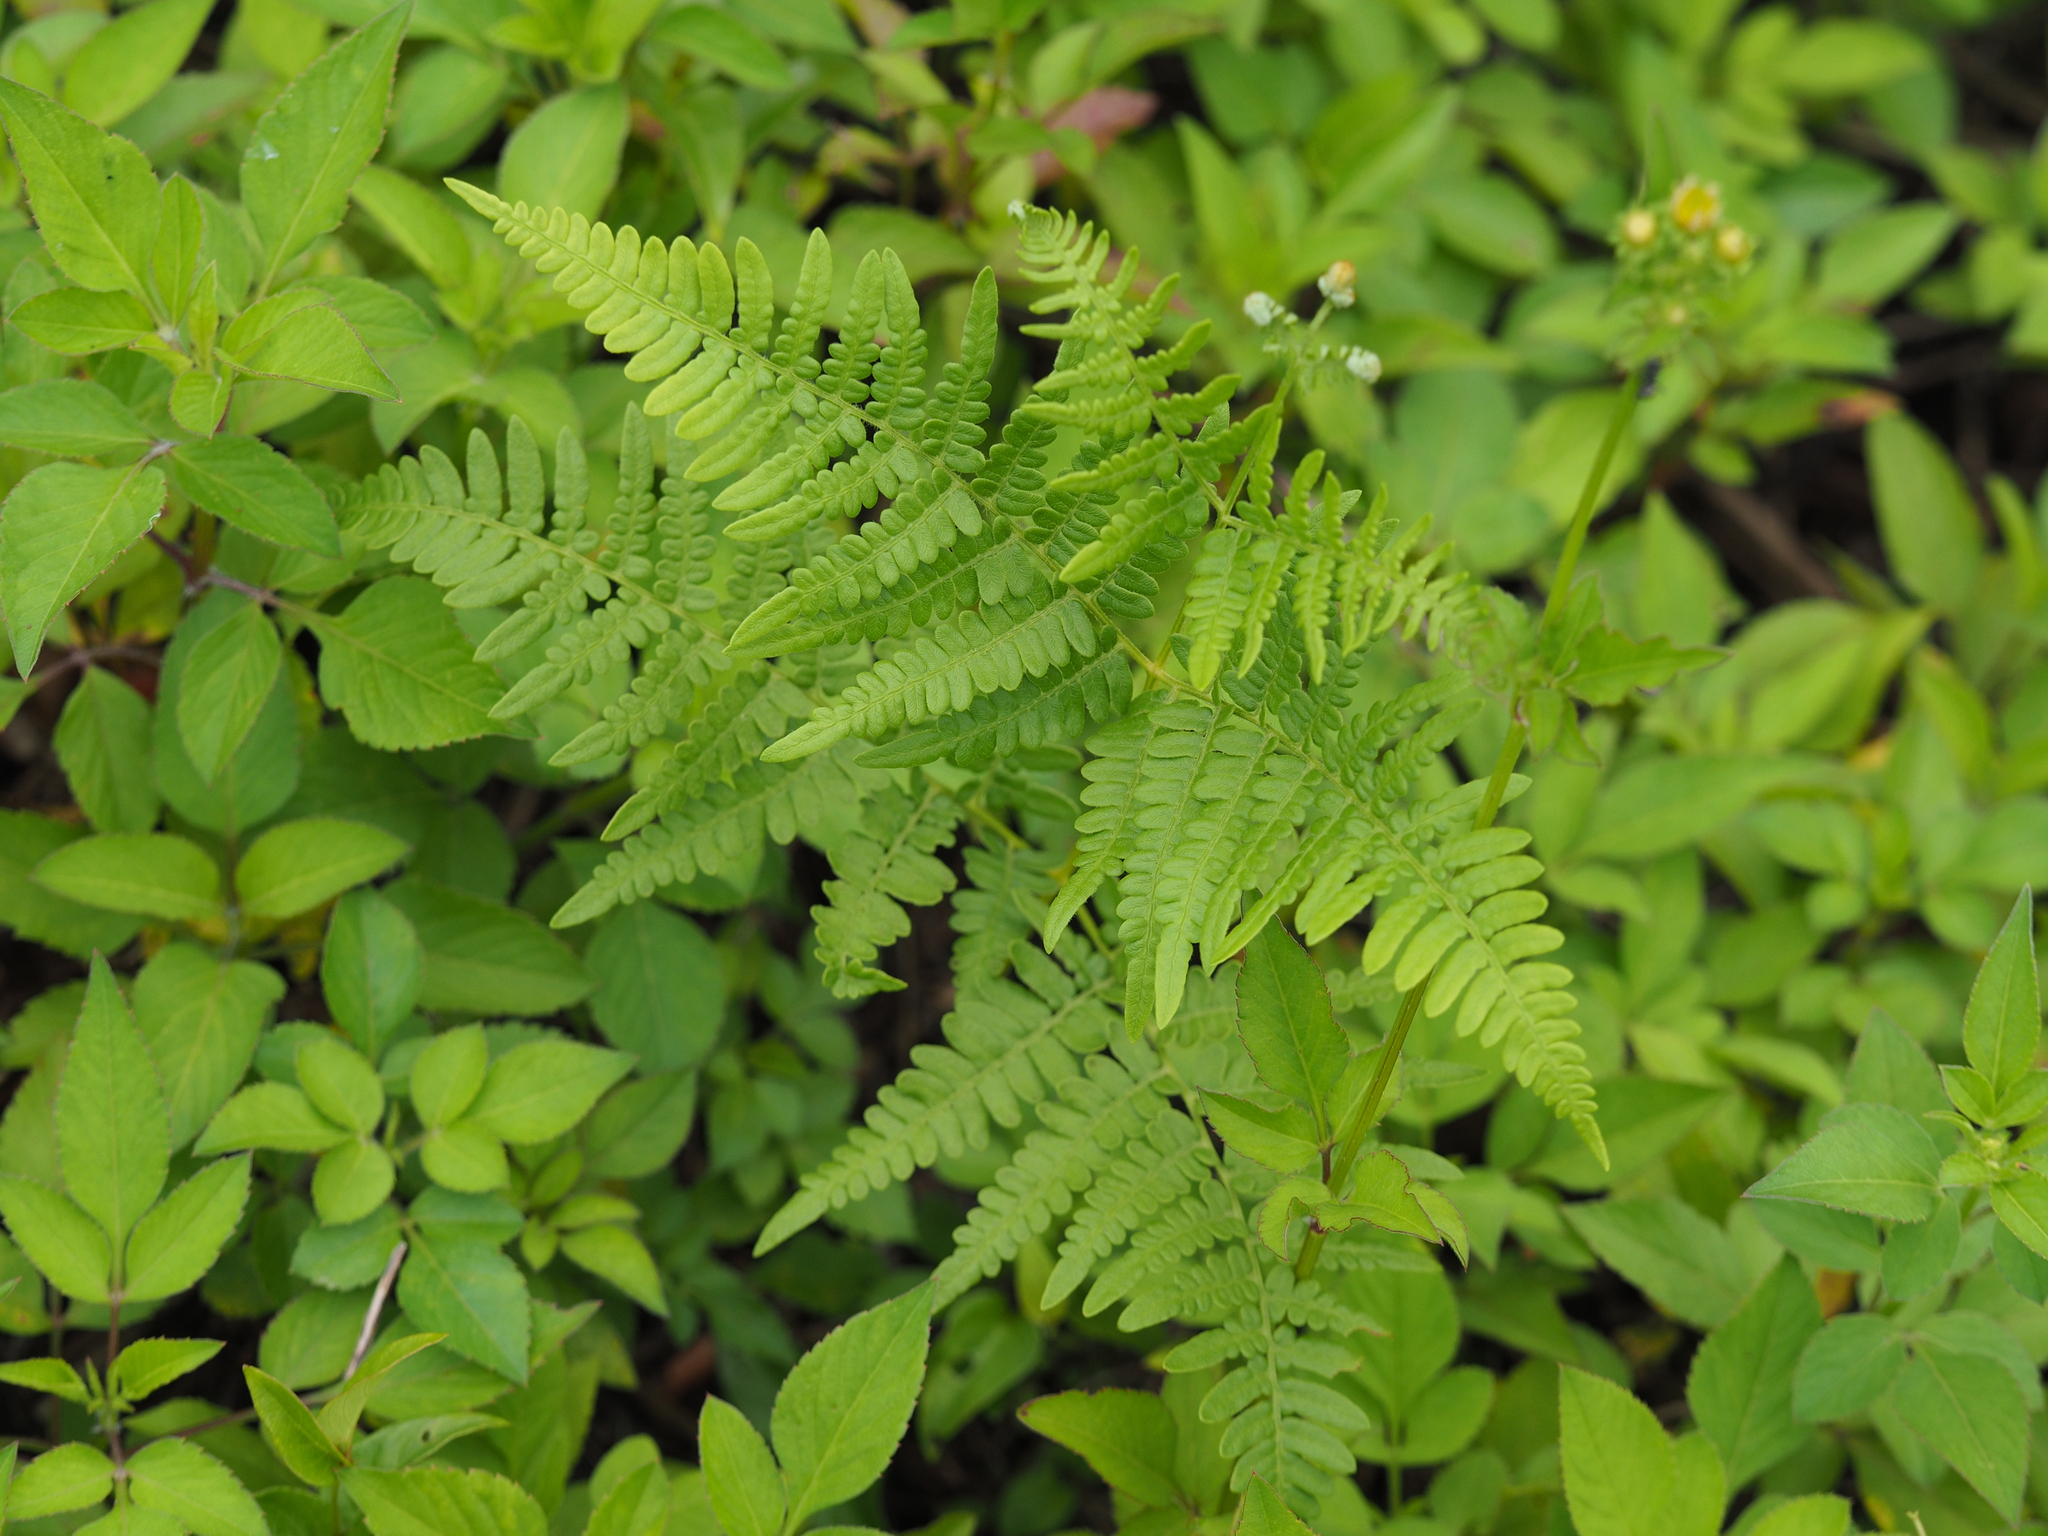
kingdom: Plantae
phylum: Tracheophyta
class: Polypodiopsida
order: Polypodiales
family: Dennstaedtiaceae
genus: Pteridium
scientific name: Pteridium aquilinum
